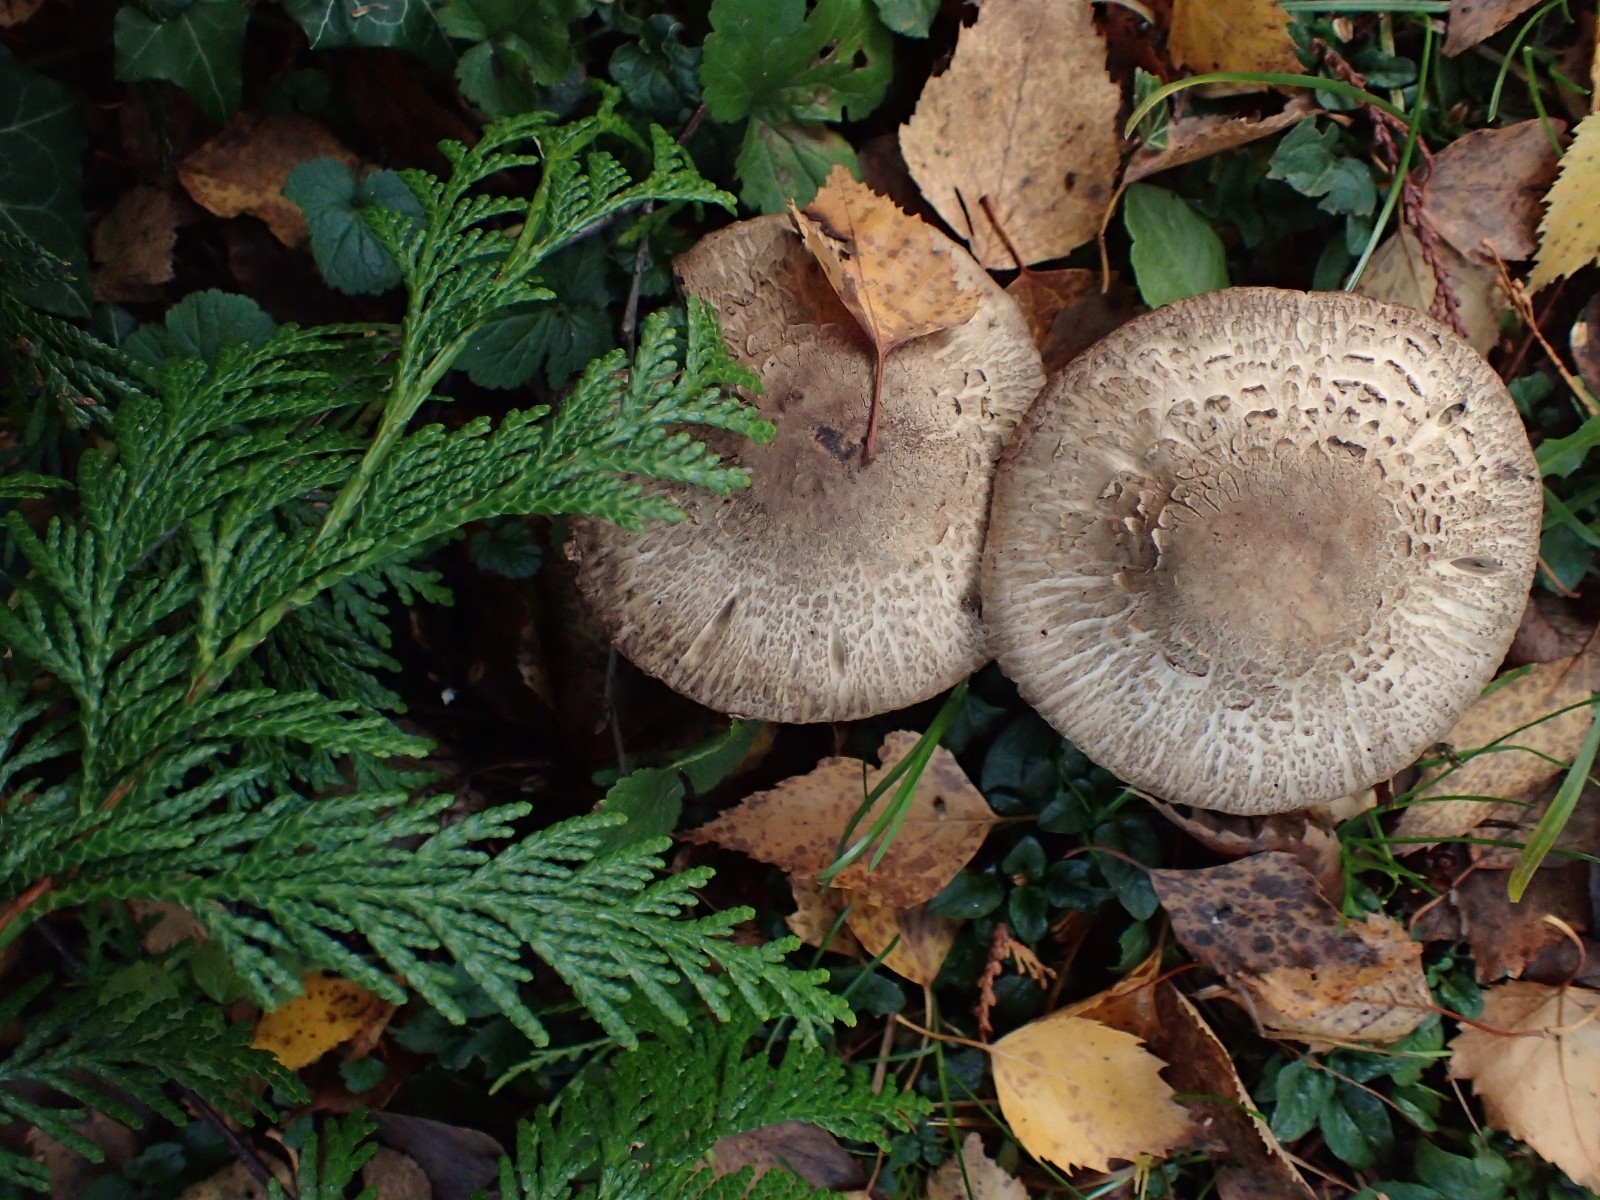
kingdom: Fungi
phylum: Basidiomycota
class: Agaricomycetes
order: Agaricales
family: Agaricaceae
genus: Agaricus
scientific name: Agaricus
